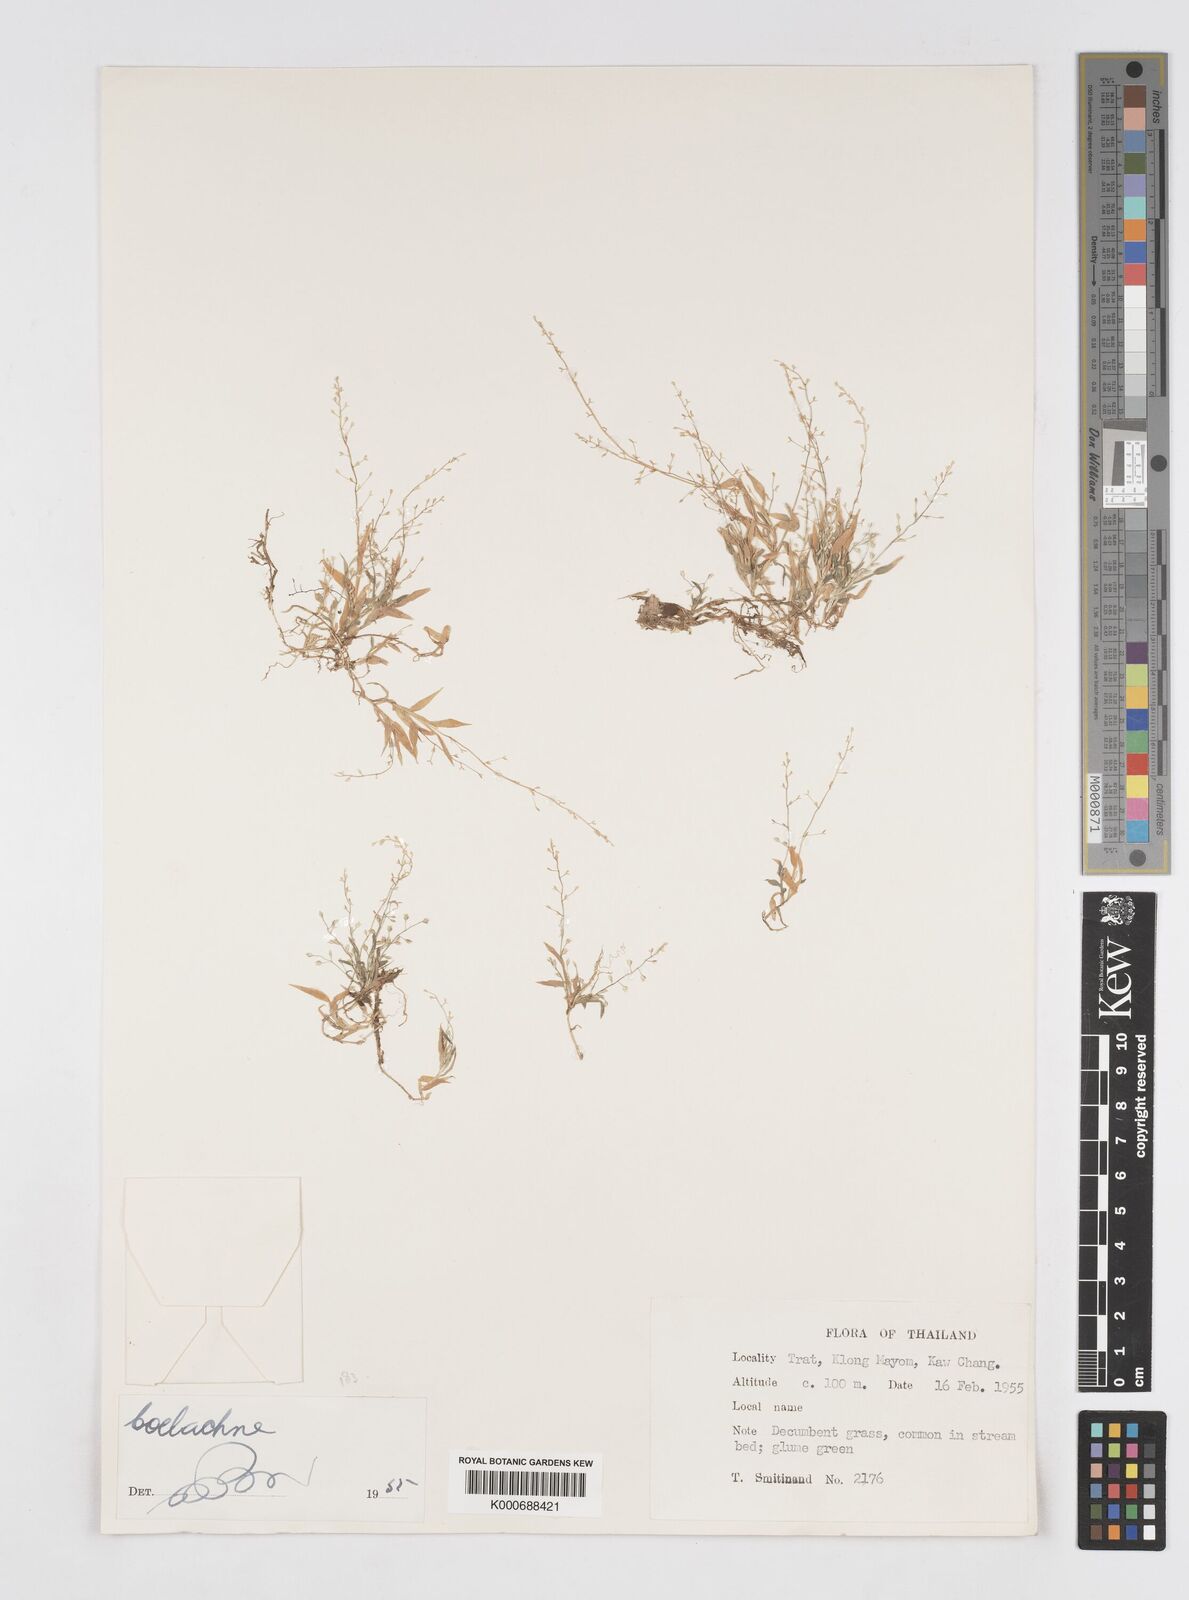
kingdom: Plantae
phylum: Tracheophyta
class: Liliopsida
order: Poales
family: Poaceae
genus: Coelachne
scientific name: Coelachne simpliciuscula
